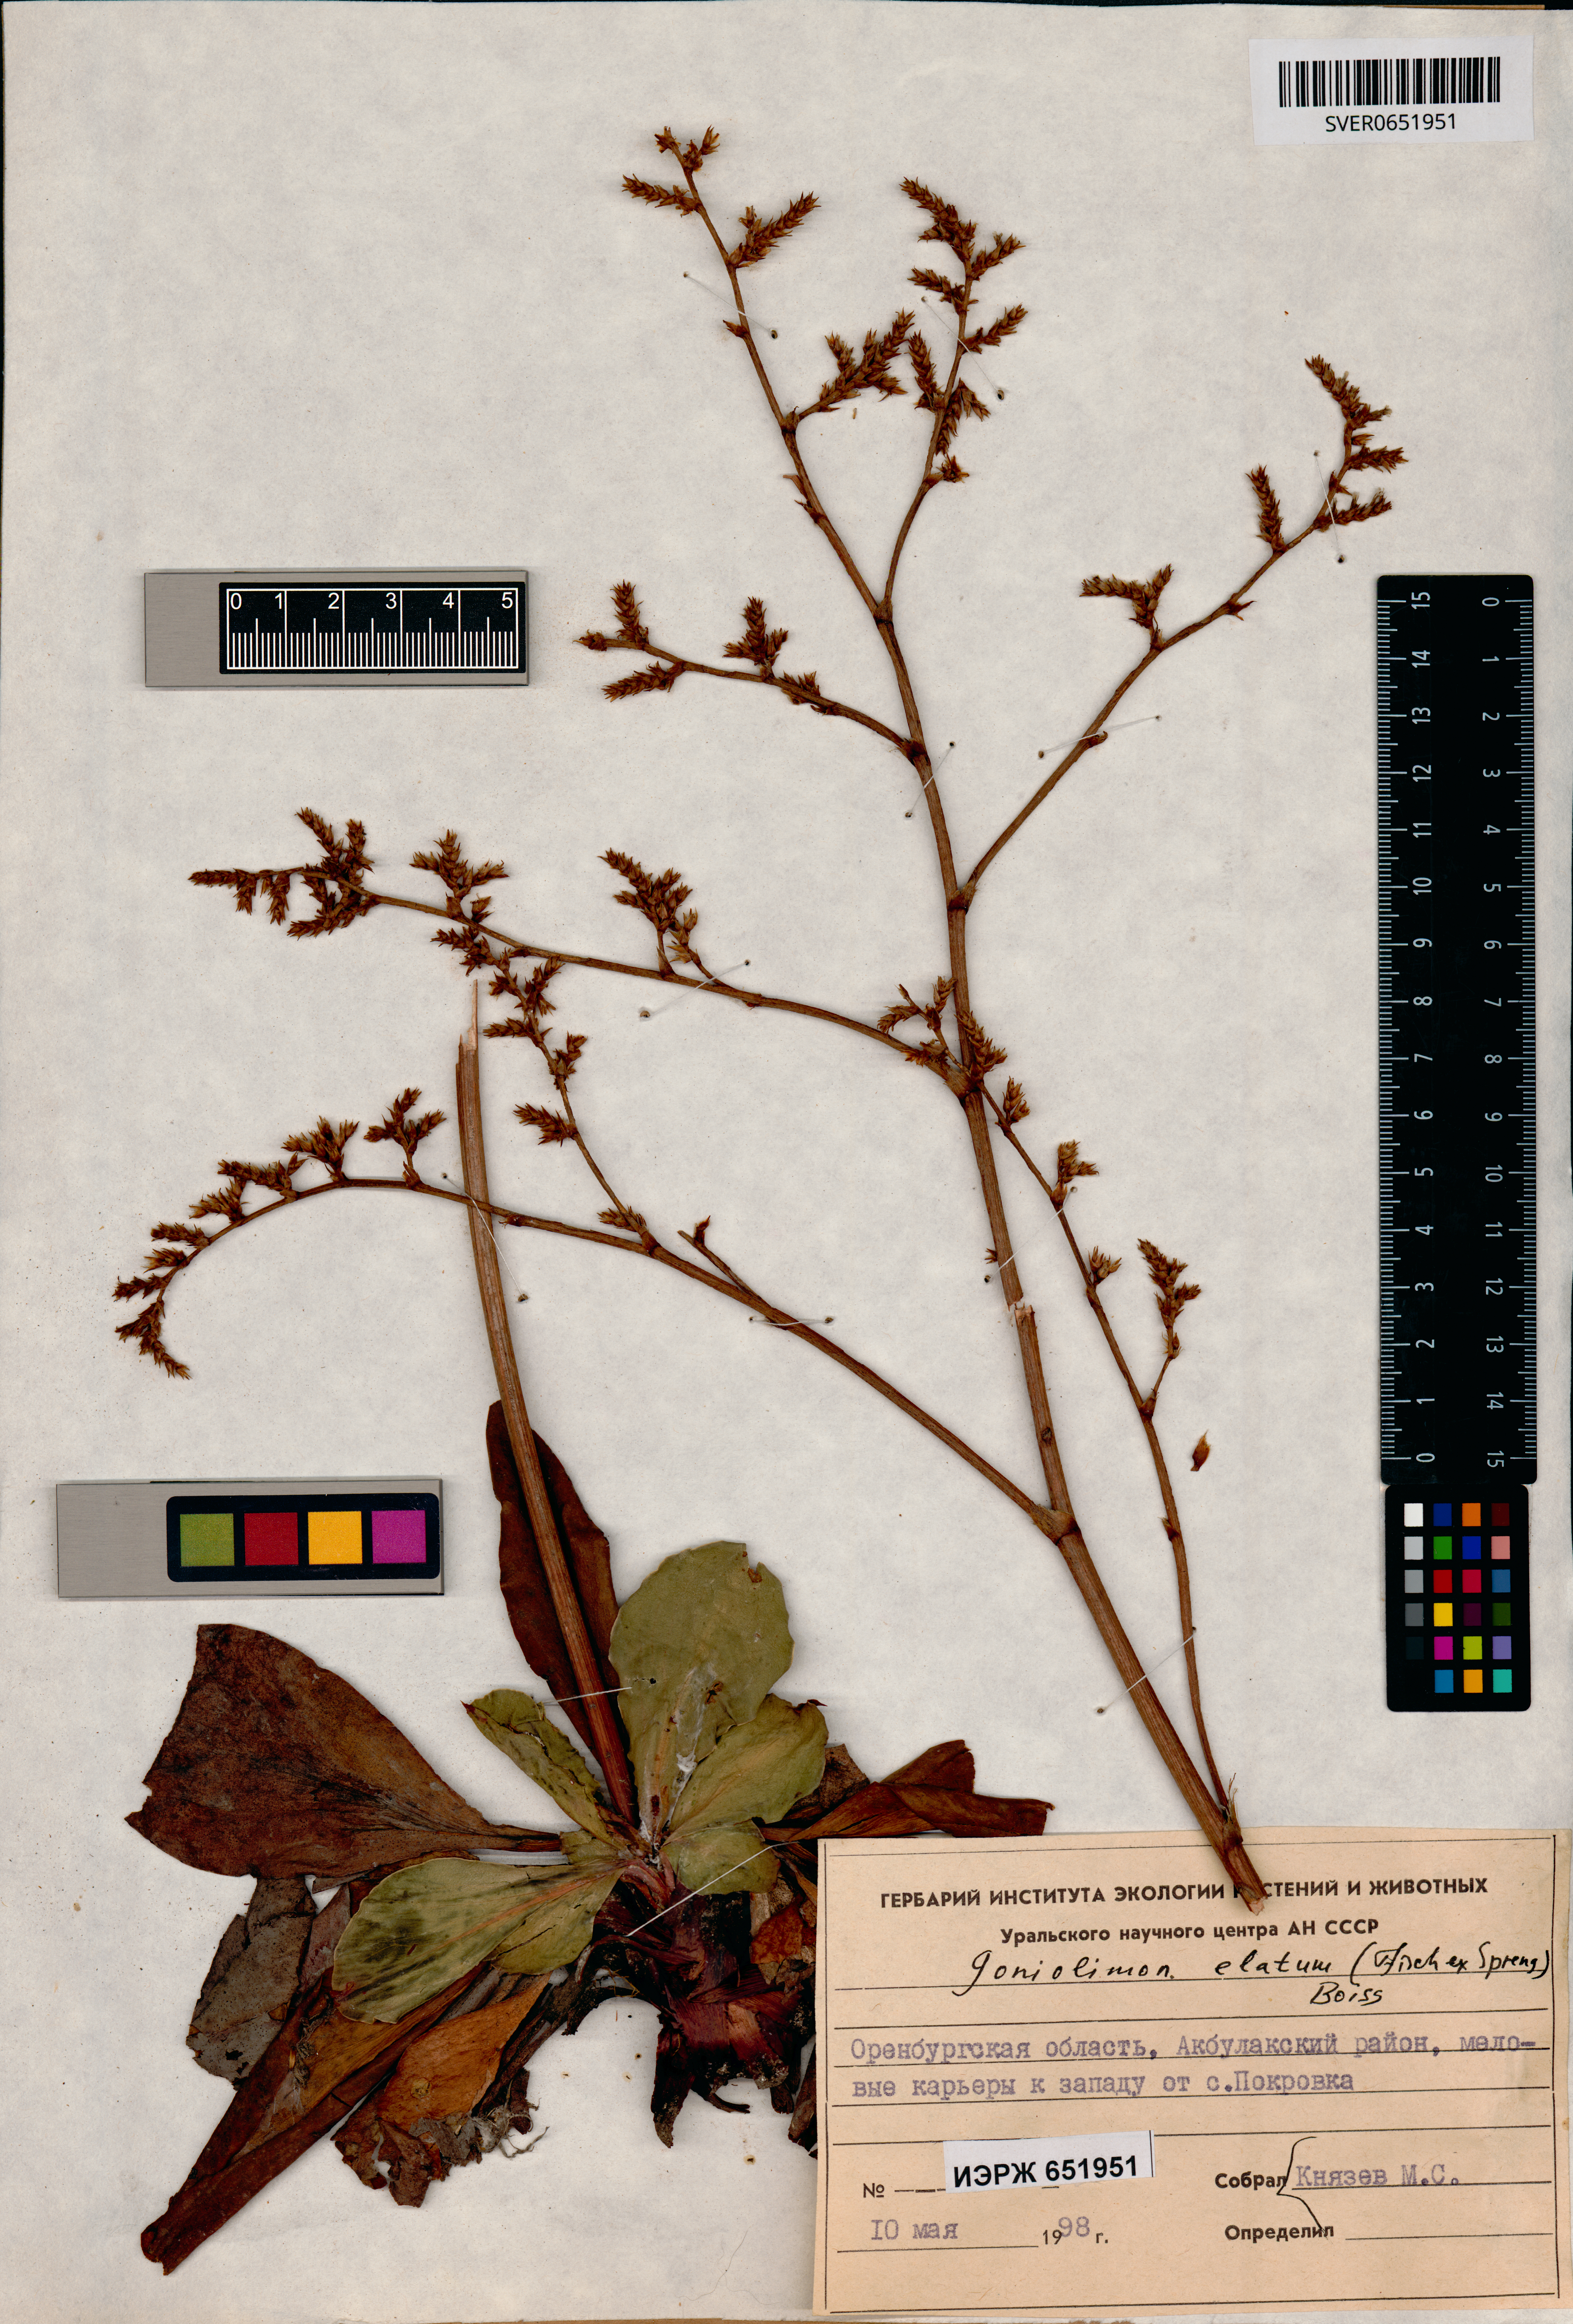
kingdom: Plantae
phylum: Tracheophyta
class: Magnoliopsida
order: Caryophyllales
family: Plumbaginaceae
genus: Goniolimon
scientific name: Goniolimon elatum
